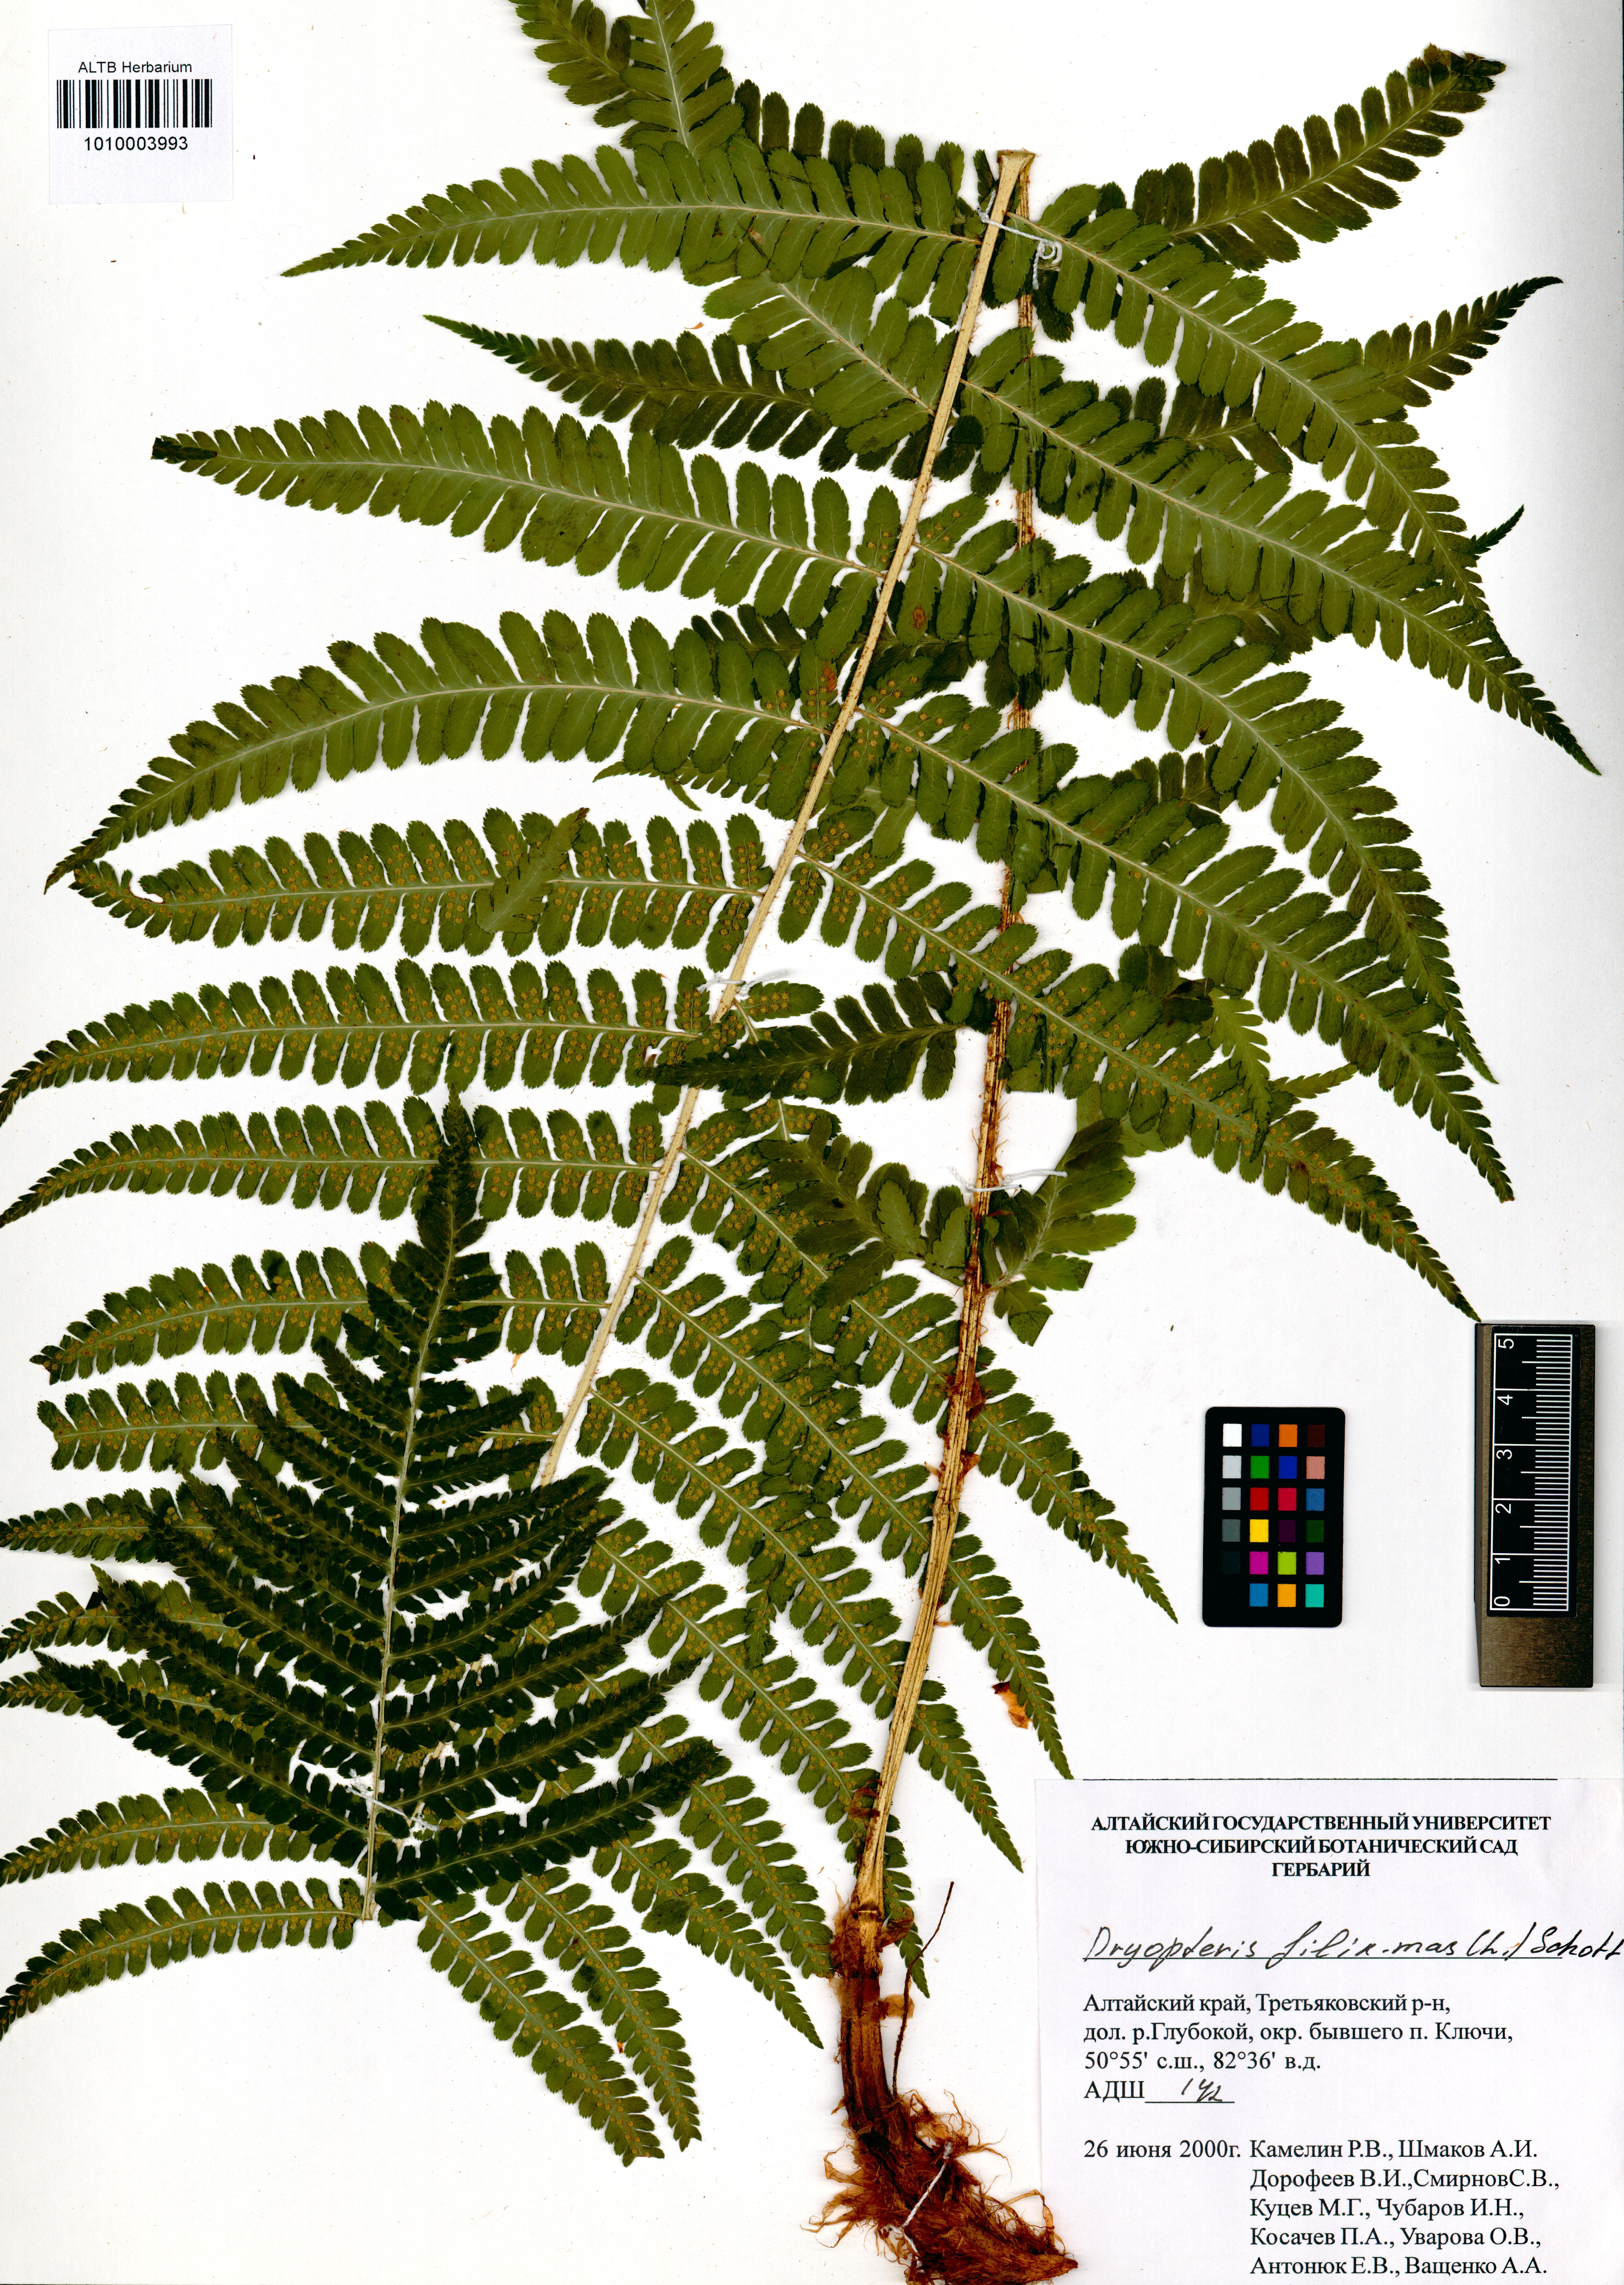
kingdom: Plantae
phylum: Tracheophyta
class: Polypodiopsida
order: Polypodiales
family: Dryopteridaceae
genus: Dryopteris
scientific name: Dryopteris filix-mas
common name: Male fern
